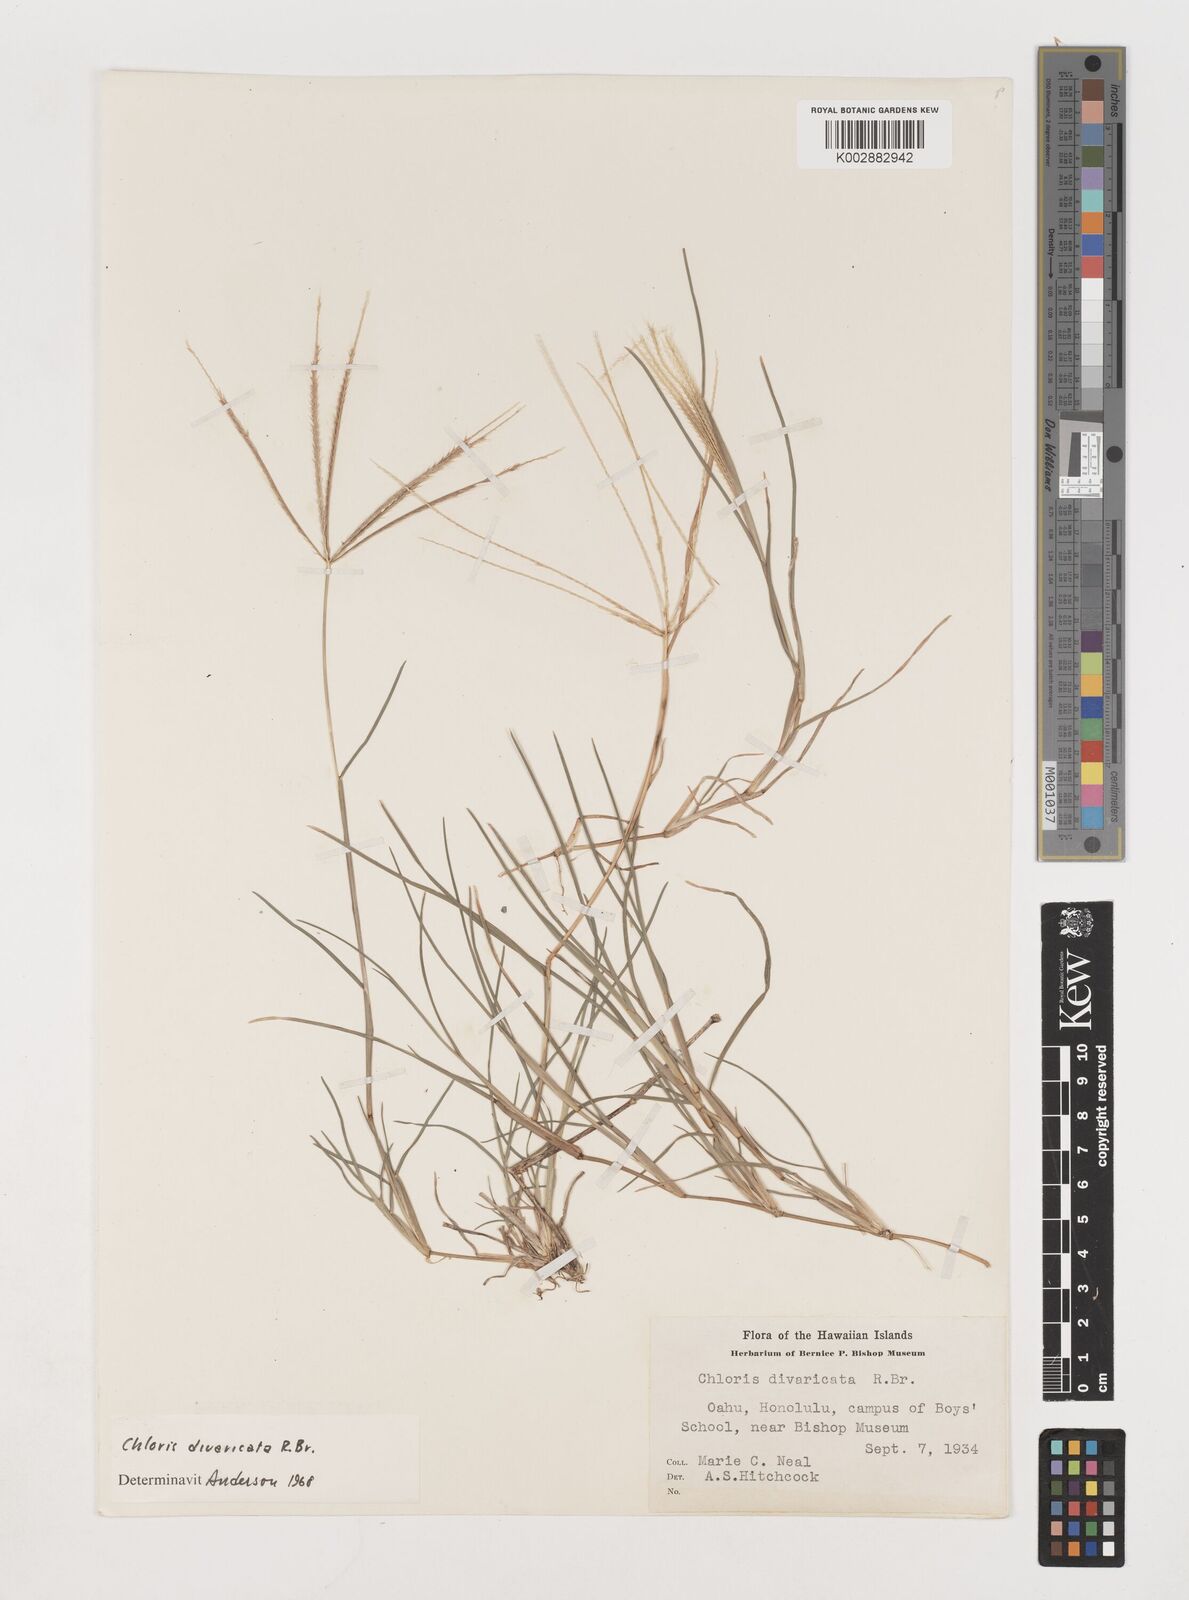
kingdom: Plantae
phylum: Tracheophyta
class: Liliopsida
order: Poales
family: Poaceae
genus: Chloris
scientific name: Chloris divaricata
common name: Spreading windmill grass
